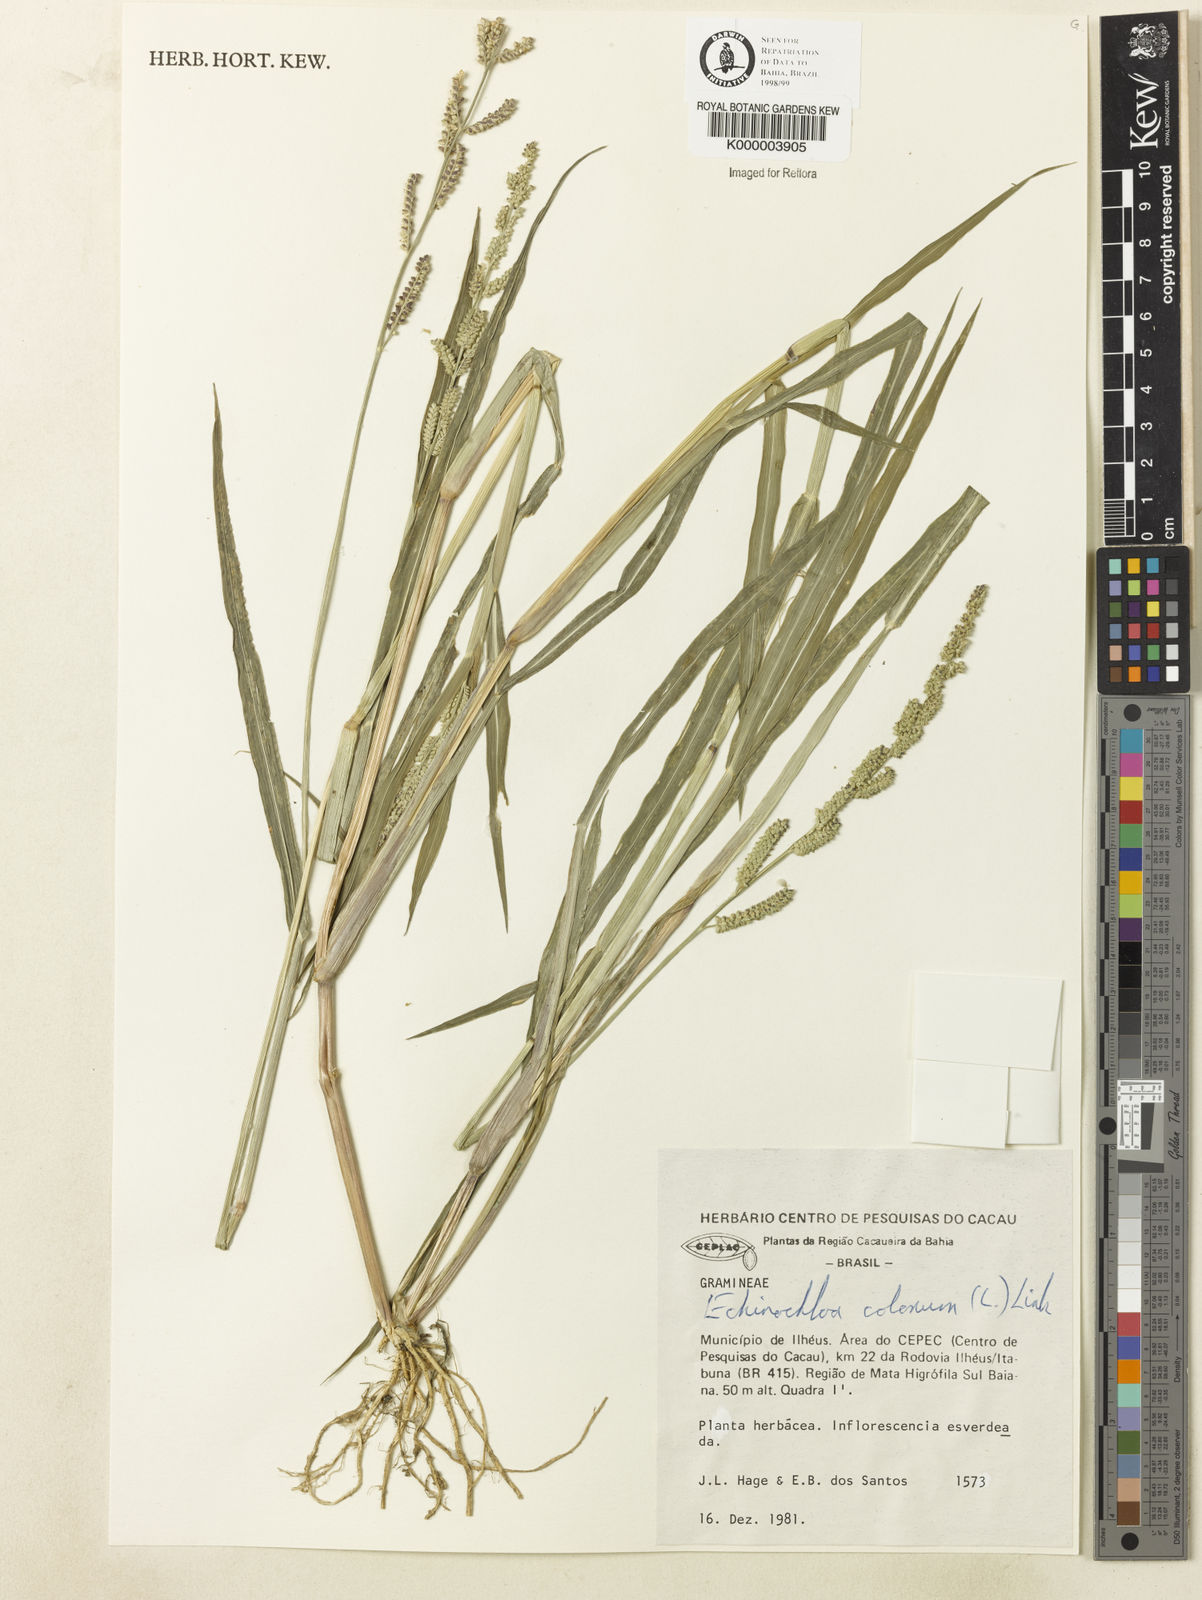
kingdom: Plantae
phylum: Tracheophyta
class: Liliopsida
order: Poales
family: Poaceae
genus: Echinochloa
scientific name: Echinochloa colonum
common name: Jungle rice
